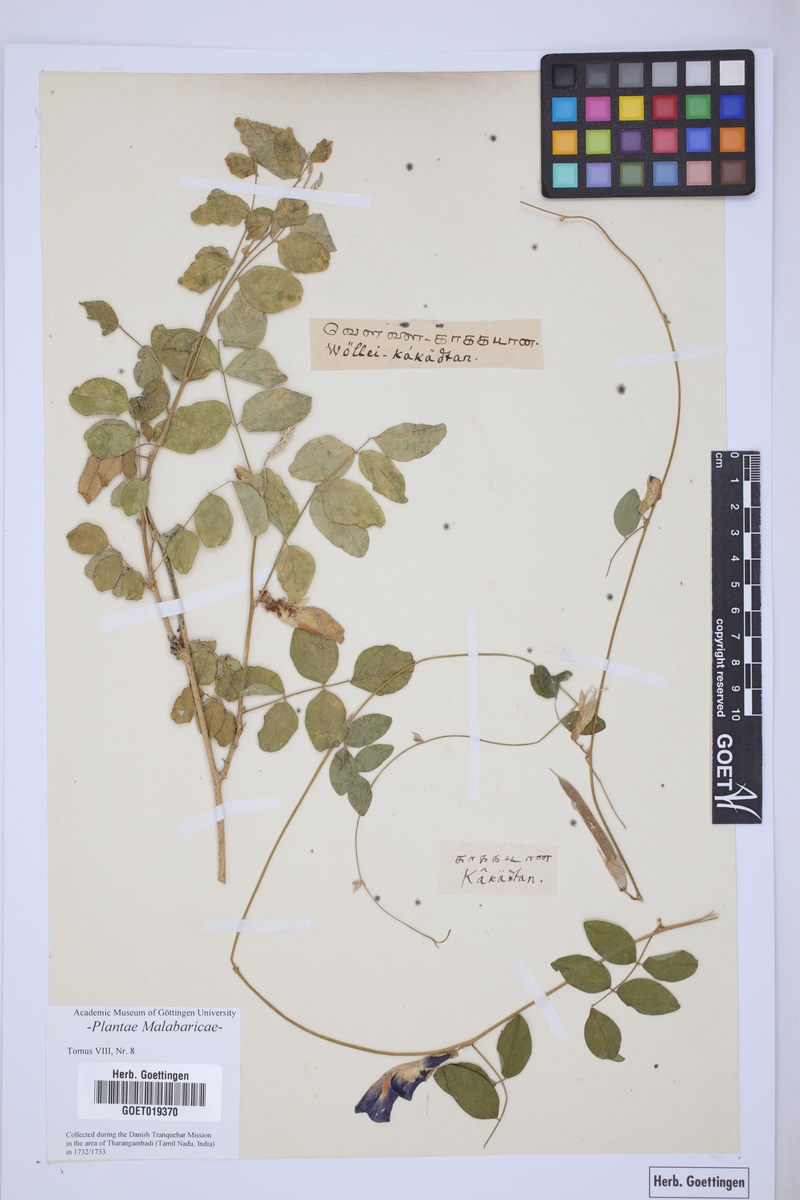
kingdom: Plantae
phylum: Tracheophyta
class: Magnoliopsida
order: Fabales
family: Fabaceae
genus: Clitoria
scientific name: Clitoria ternatea
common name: Asian pigeonwings
